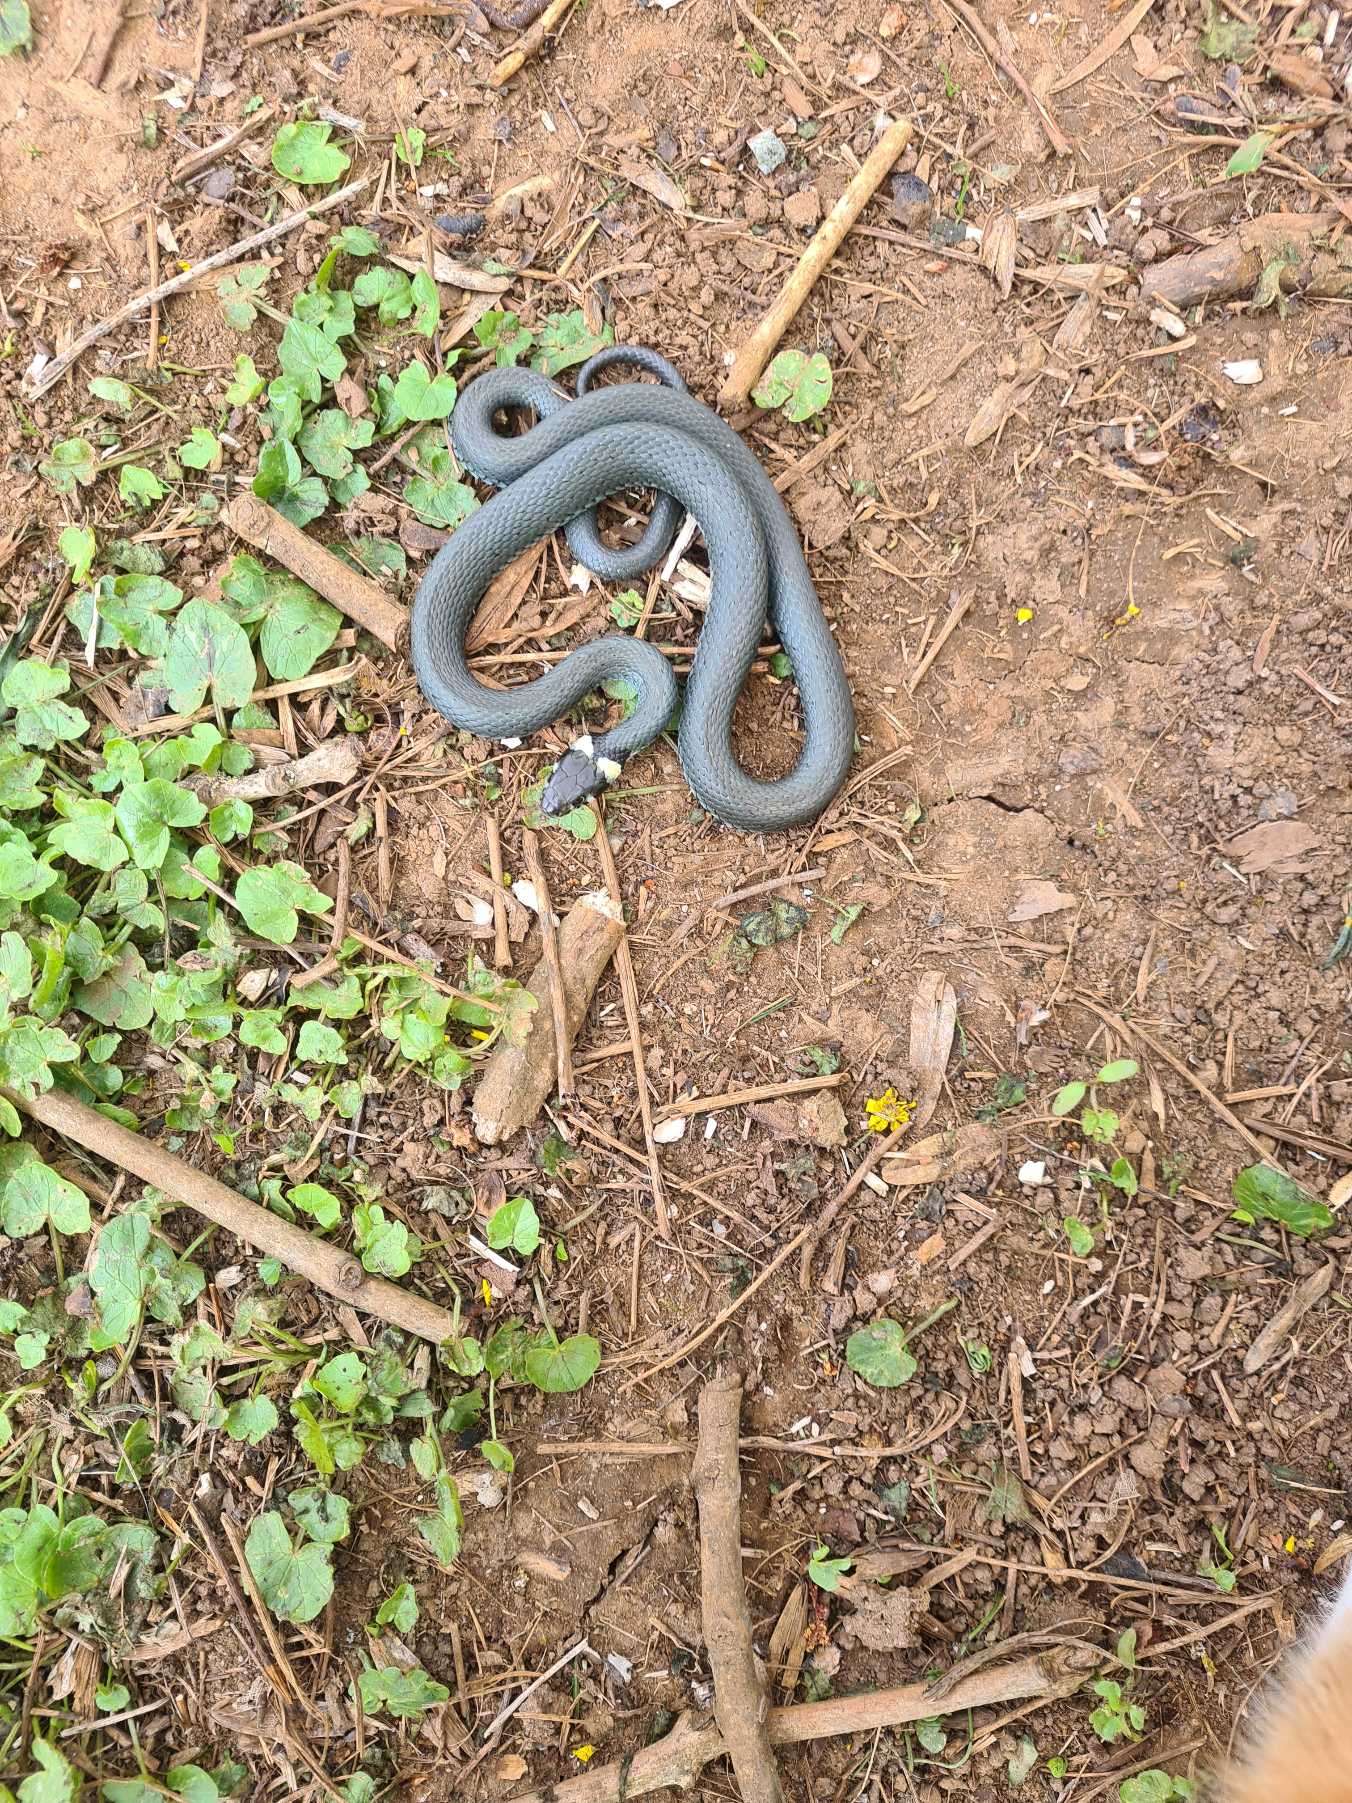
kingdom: Animalia
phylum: Chordata
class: Squamata
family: Colubridae
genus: Natrix
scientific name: Natrix natrix
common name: Snog
